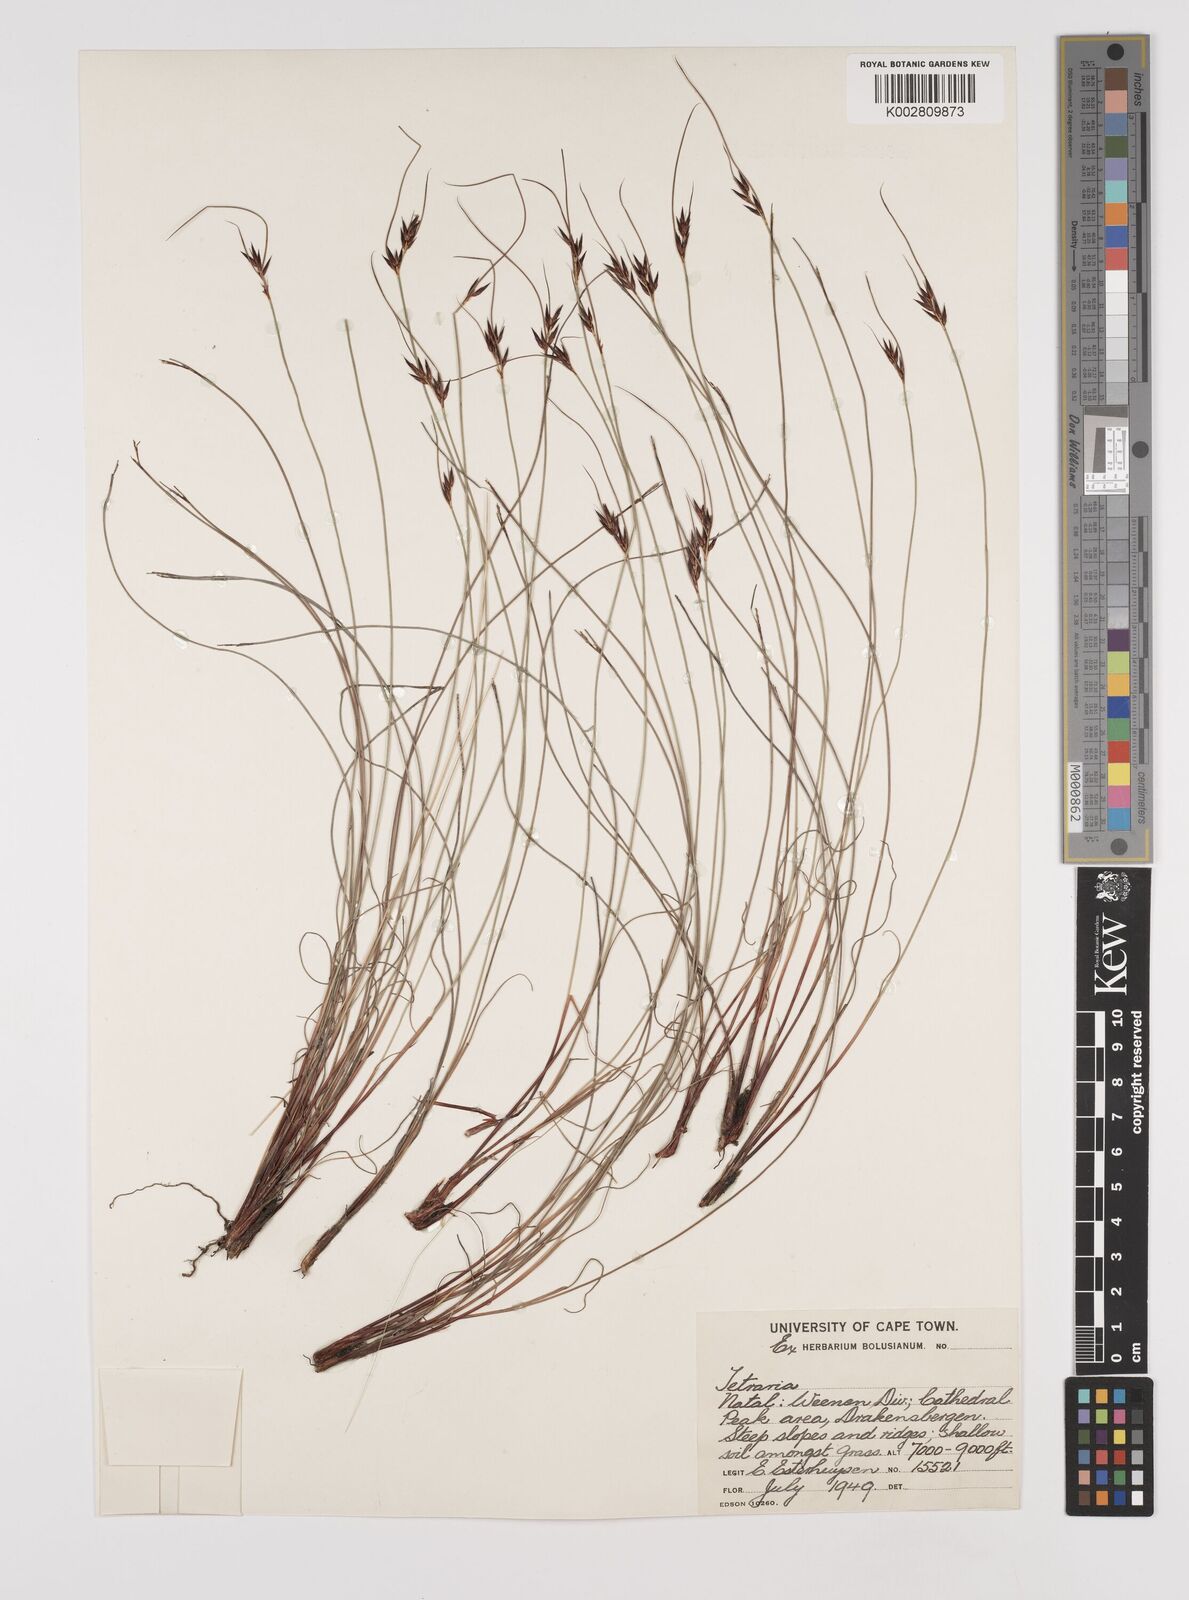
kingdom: Plantae
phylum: Tracheophyta
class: Liliopsida
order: Poales
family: Cyperaceae
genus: Schoenus
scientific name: Schoenus
